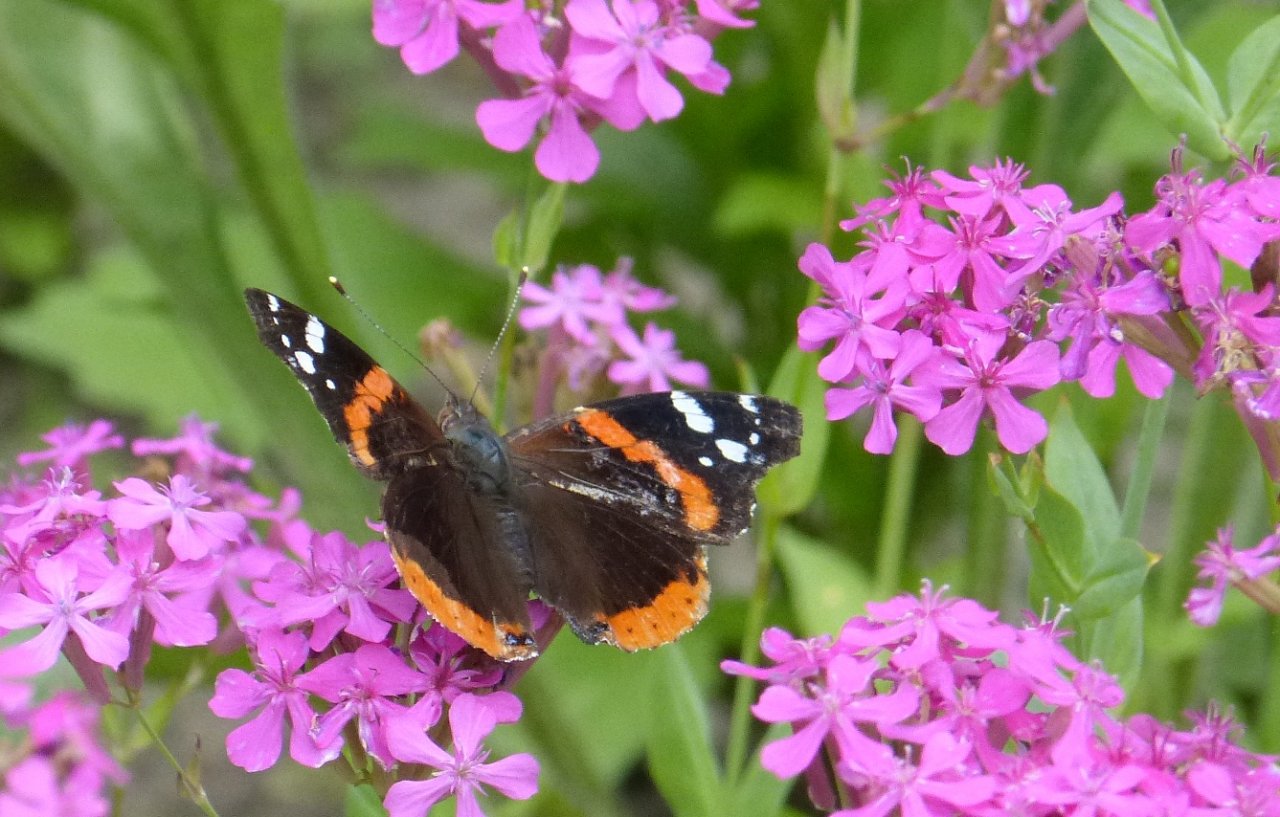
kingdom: Animalia
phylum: Arthropoda
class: Insecta
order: Lepidoptera
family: Nymphalidae
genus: Vanessa
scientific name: Vanessa atalanta
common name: Red Admiral
